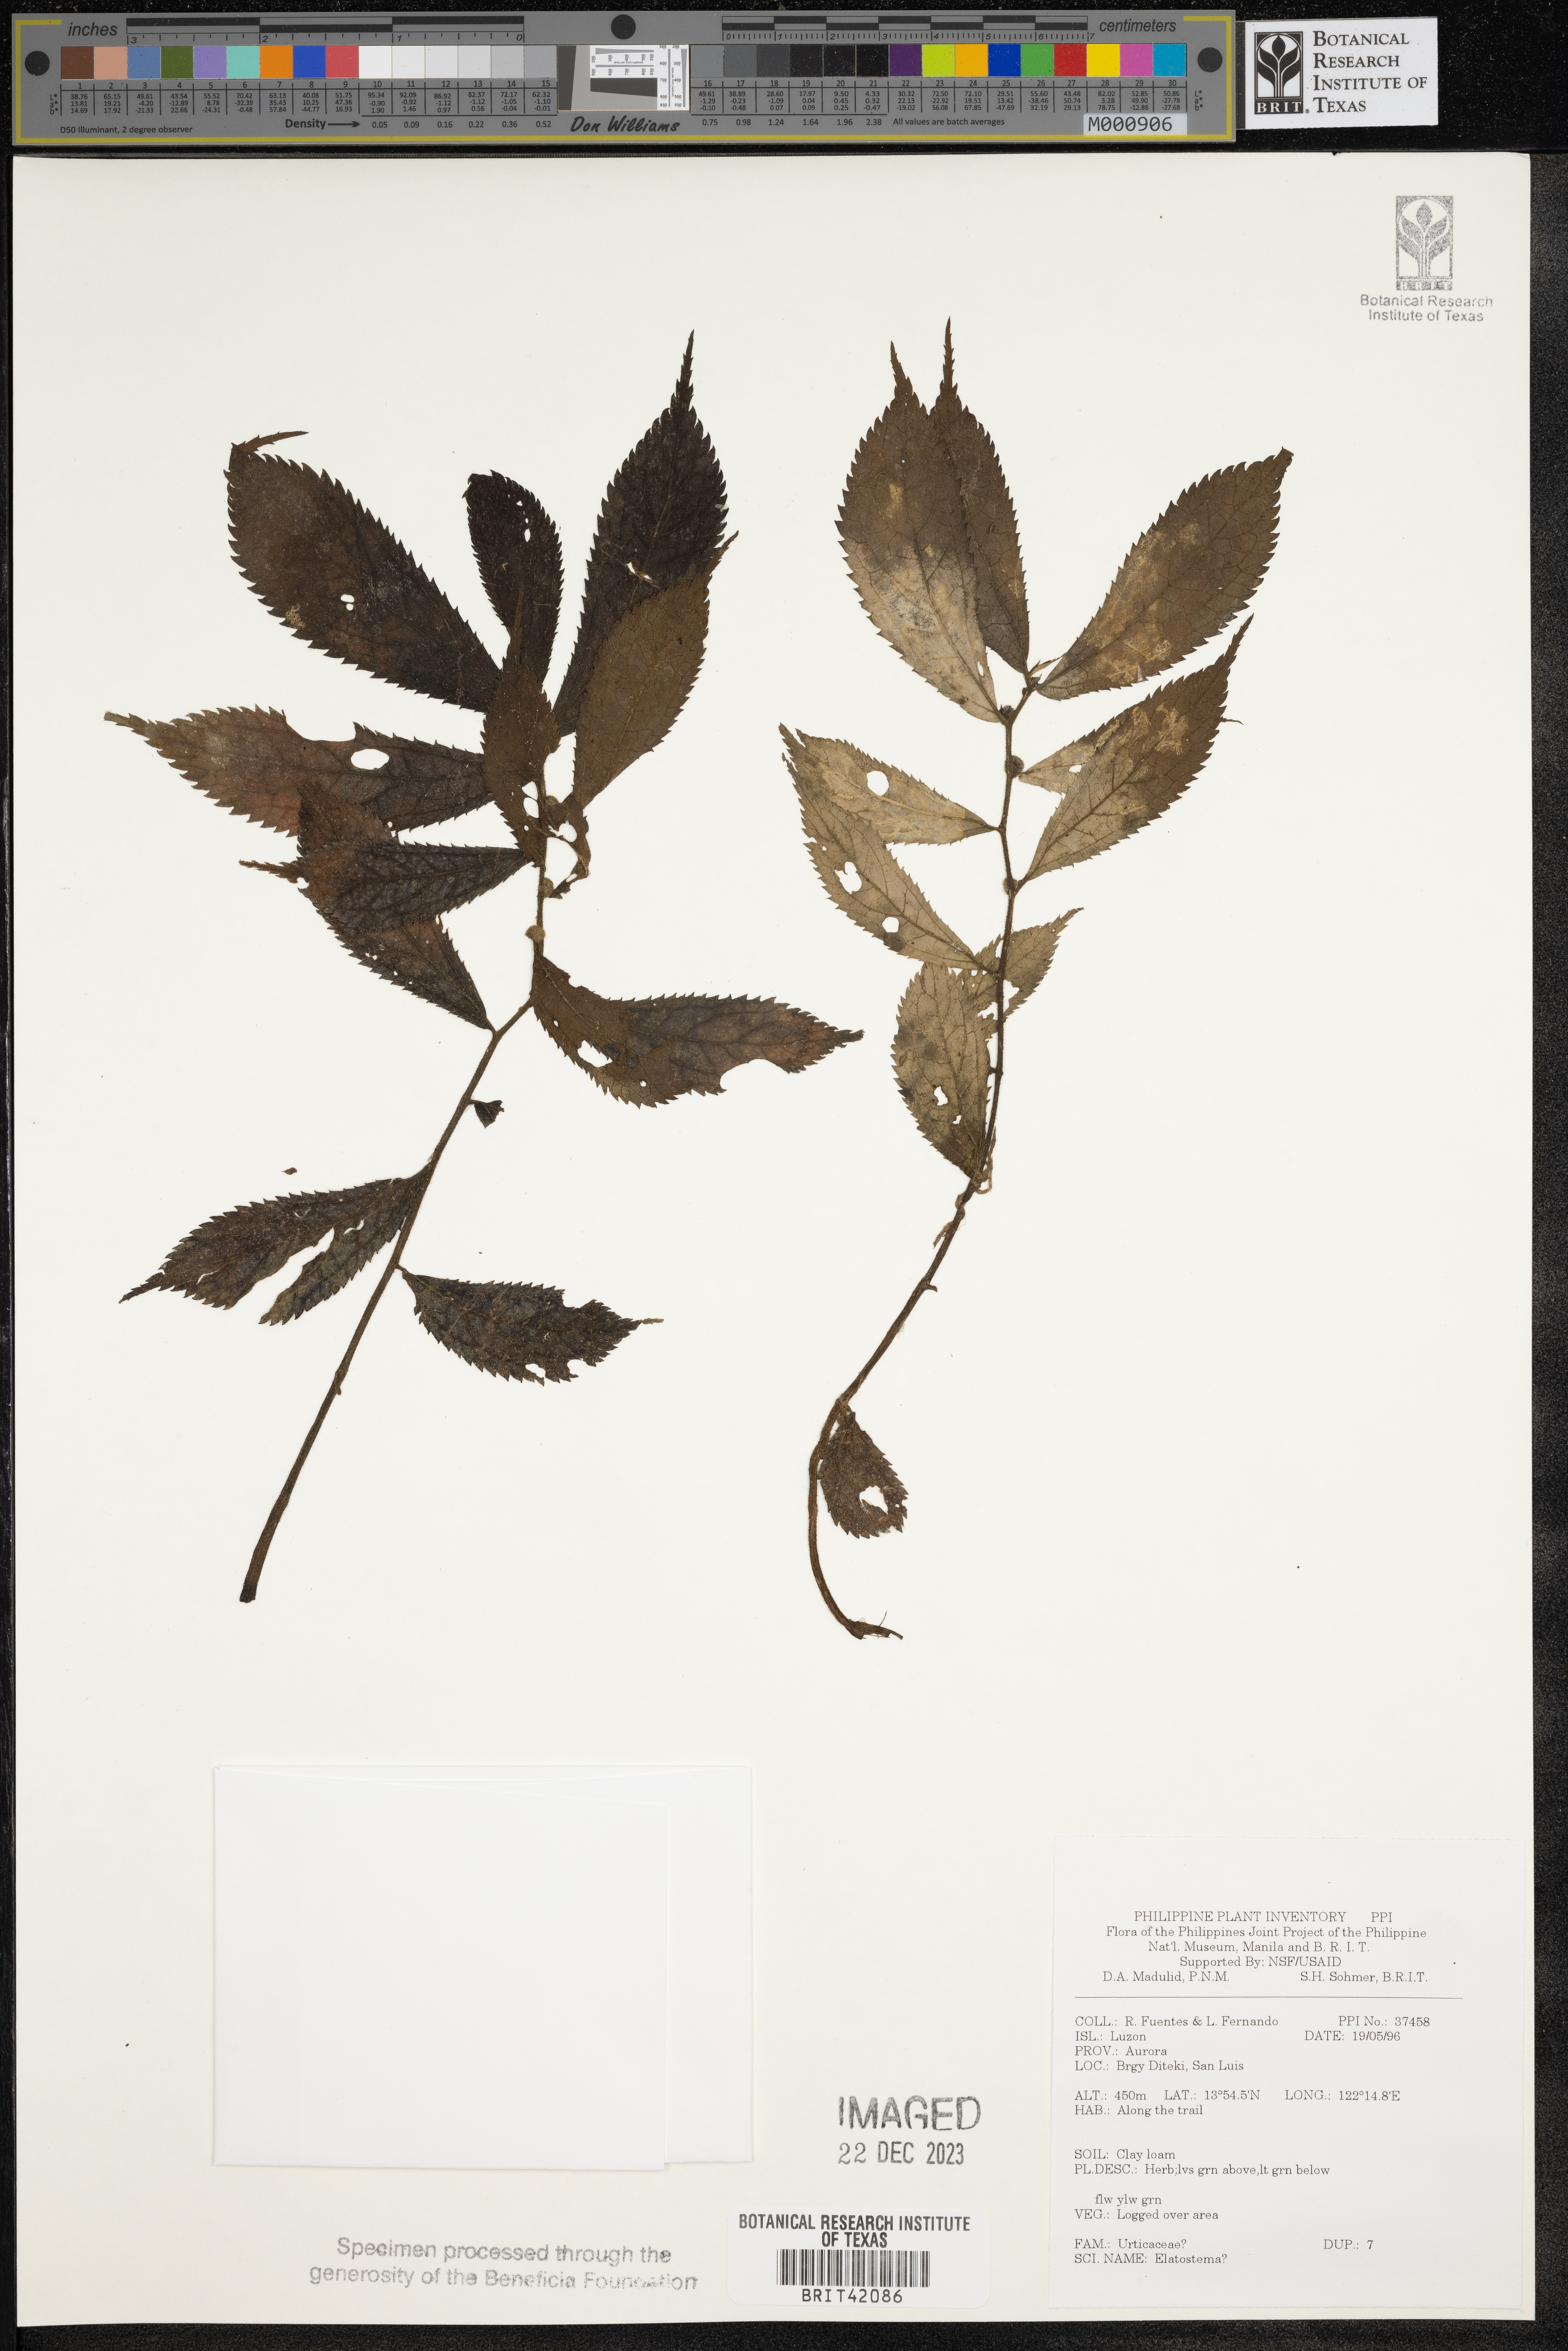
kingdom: Plantae
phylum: Tracheophyta
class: Magnoliopsida
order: Rosales
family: Urticaceae
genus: Elatostema
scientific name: Elatostema
